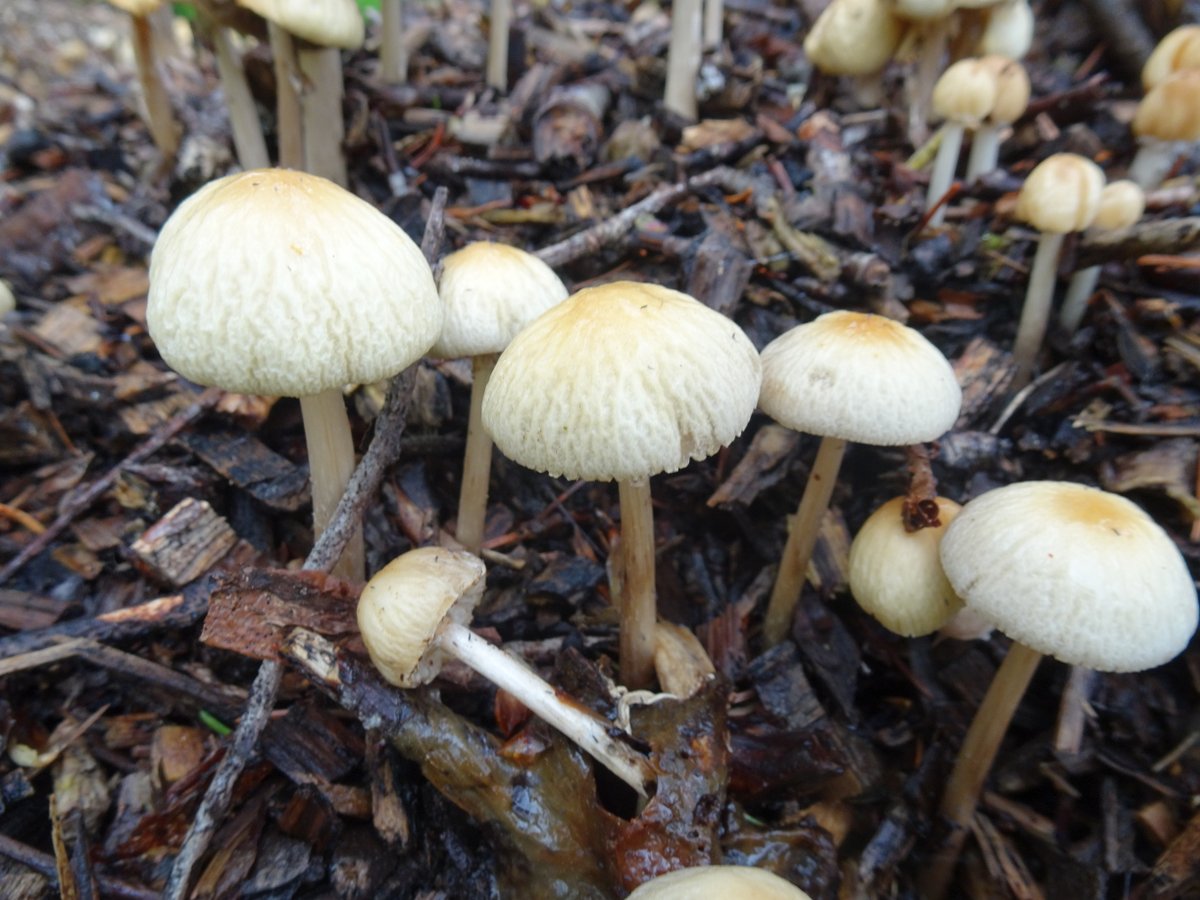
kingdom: Fungi
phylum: Basidiomycota
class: Agaricomycetes
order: Agaricales
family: Strophariaceae
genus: Agrocybe
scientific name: Agrocybe rivulosa
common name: året agerhat
